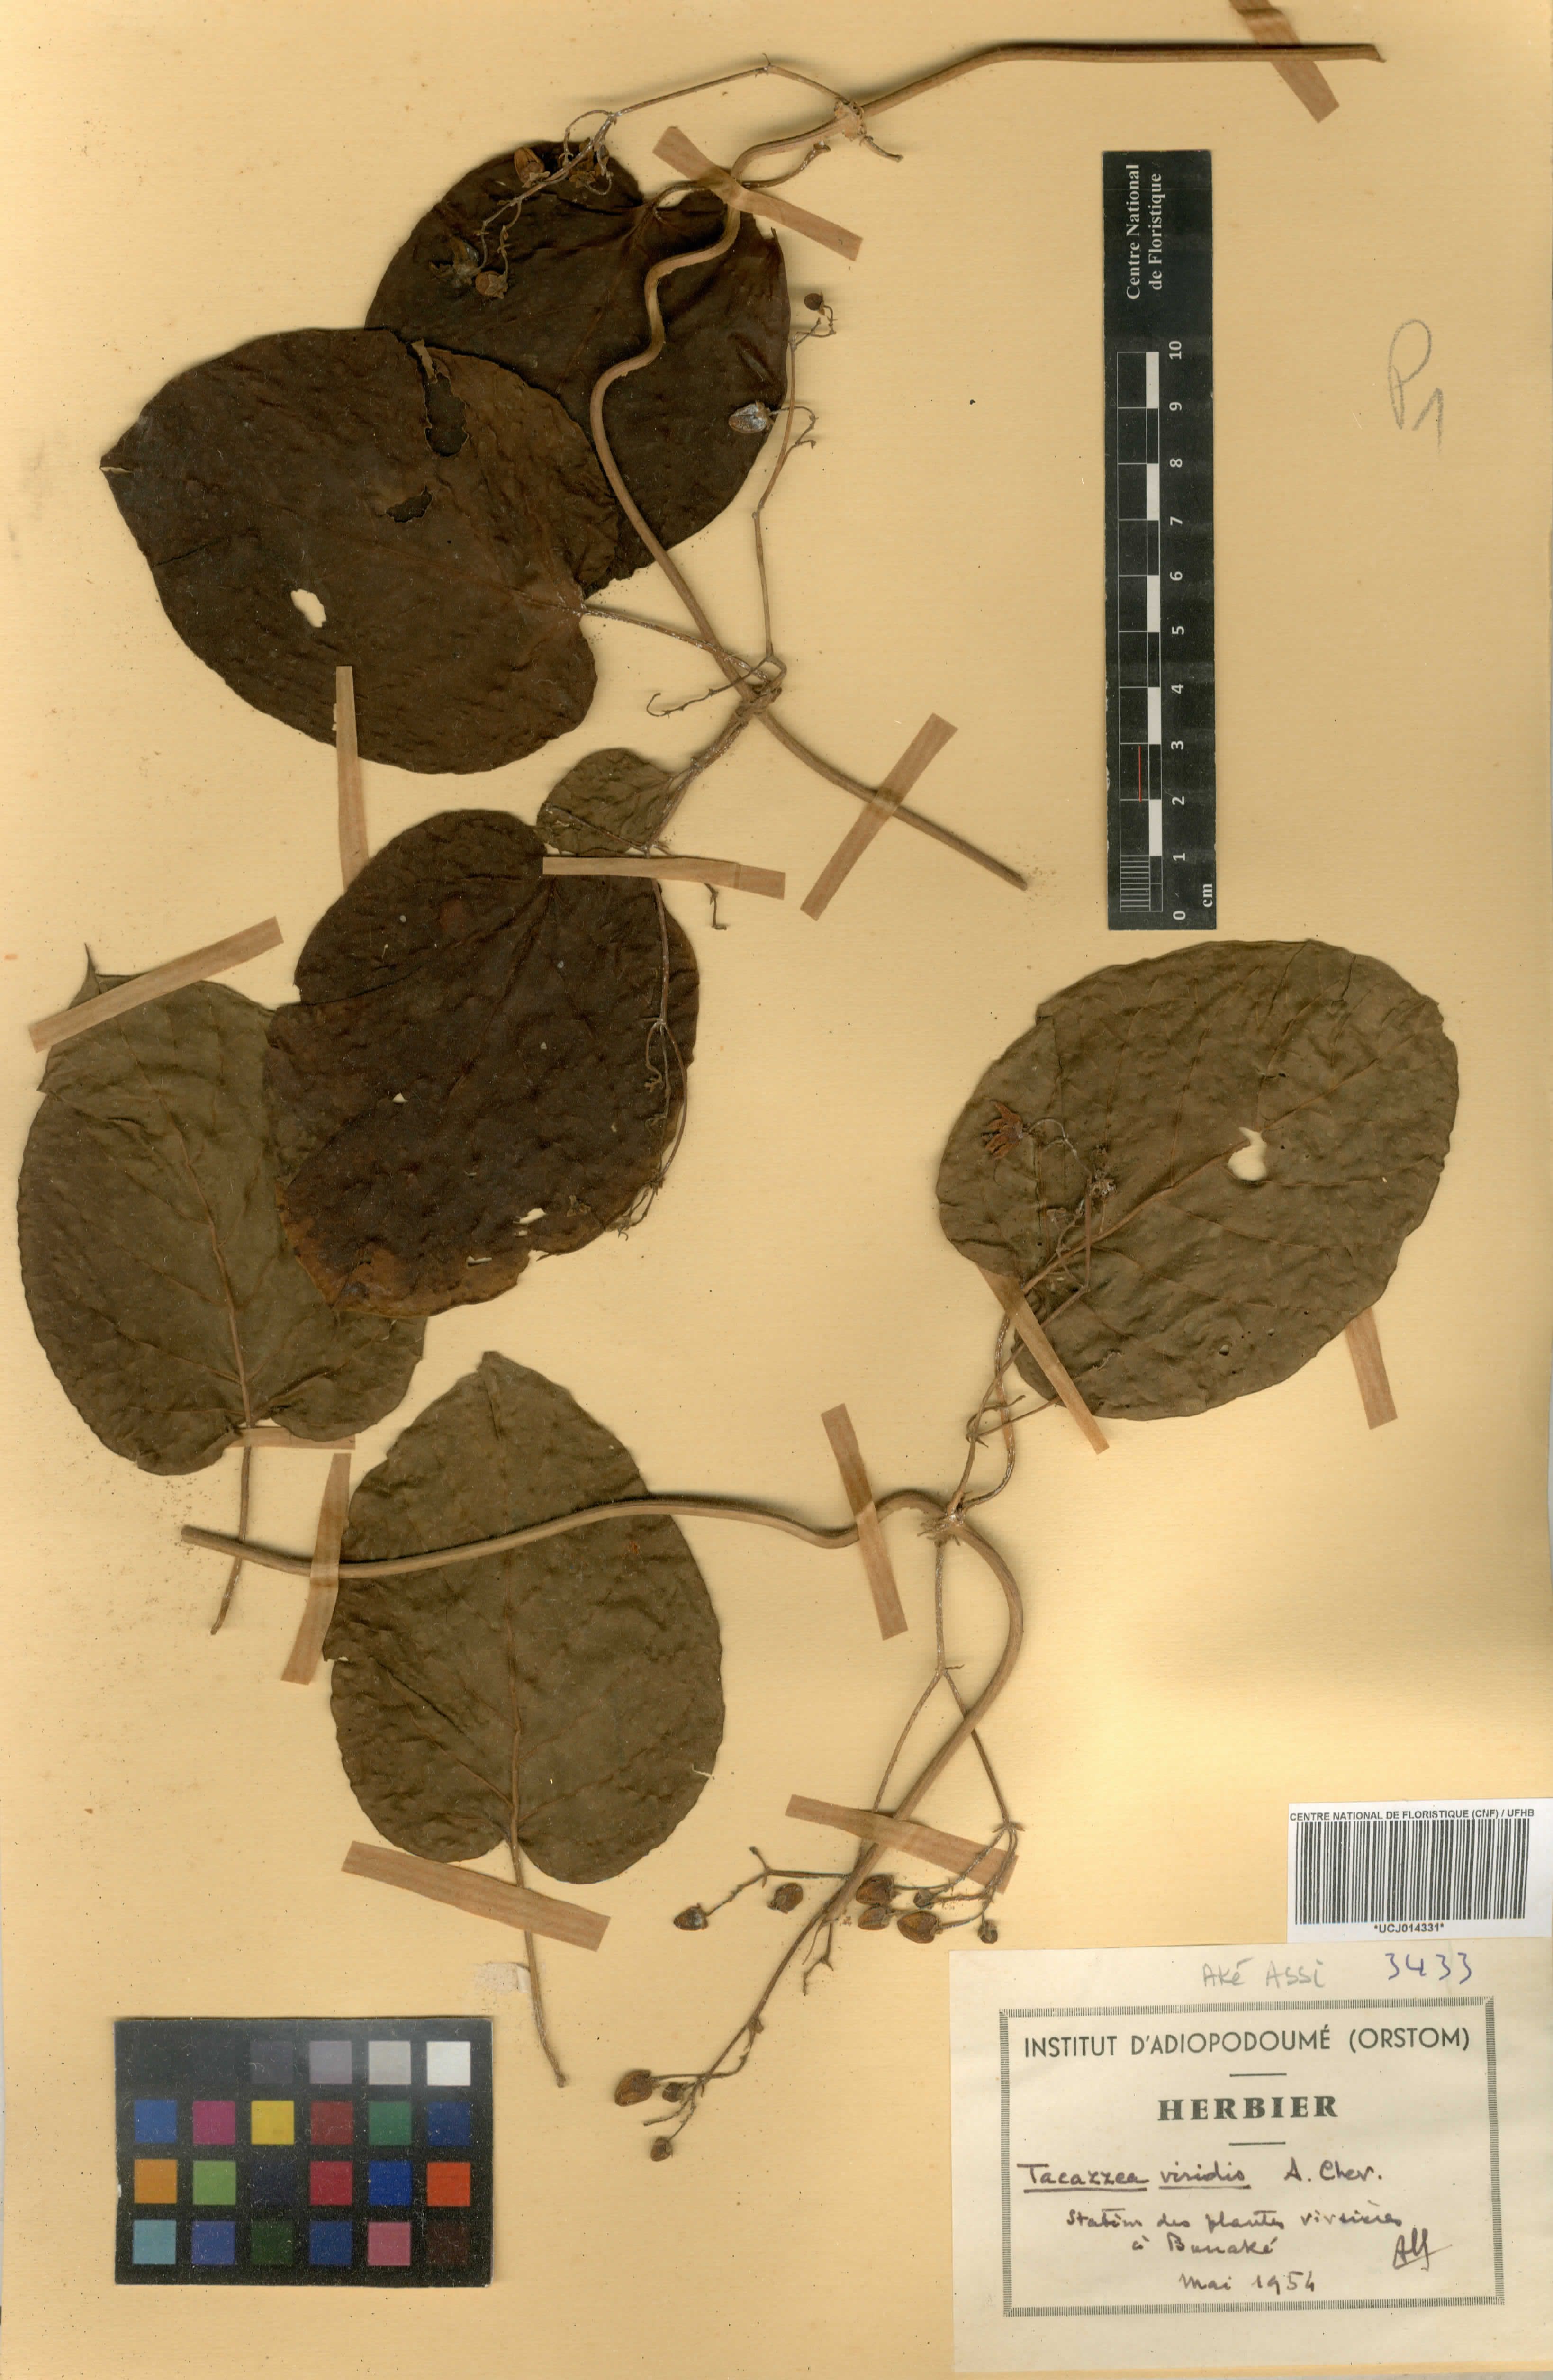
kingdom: Plantae
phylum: Tracheophyta
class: Magnoliopsida
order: Gentianales
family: Apocynaceae
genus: Tacazzea
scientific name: Tacazzea apiculata
